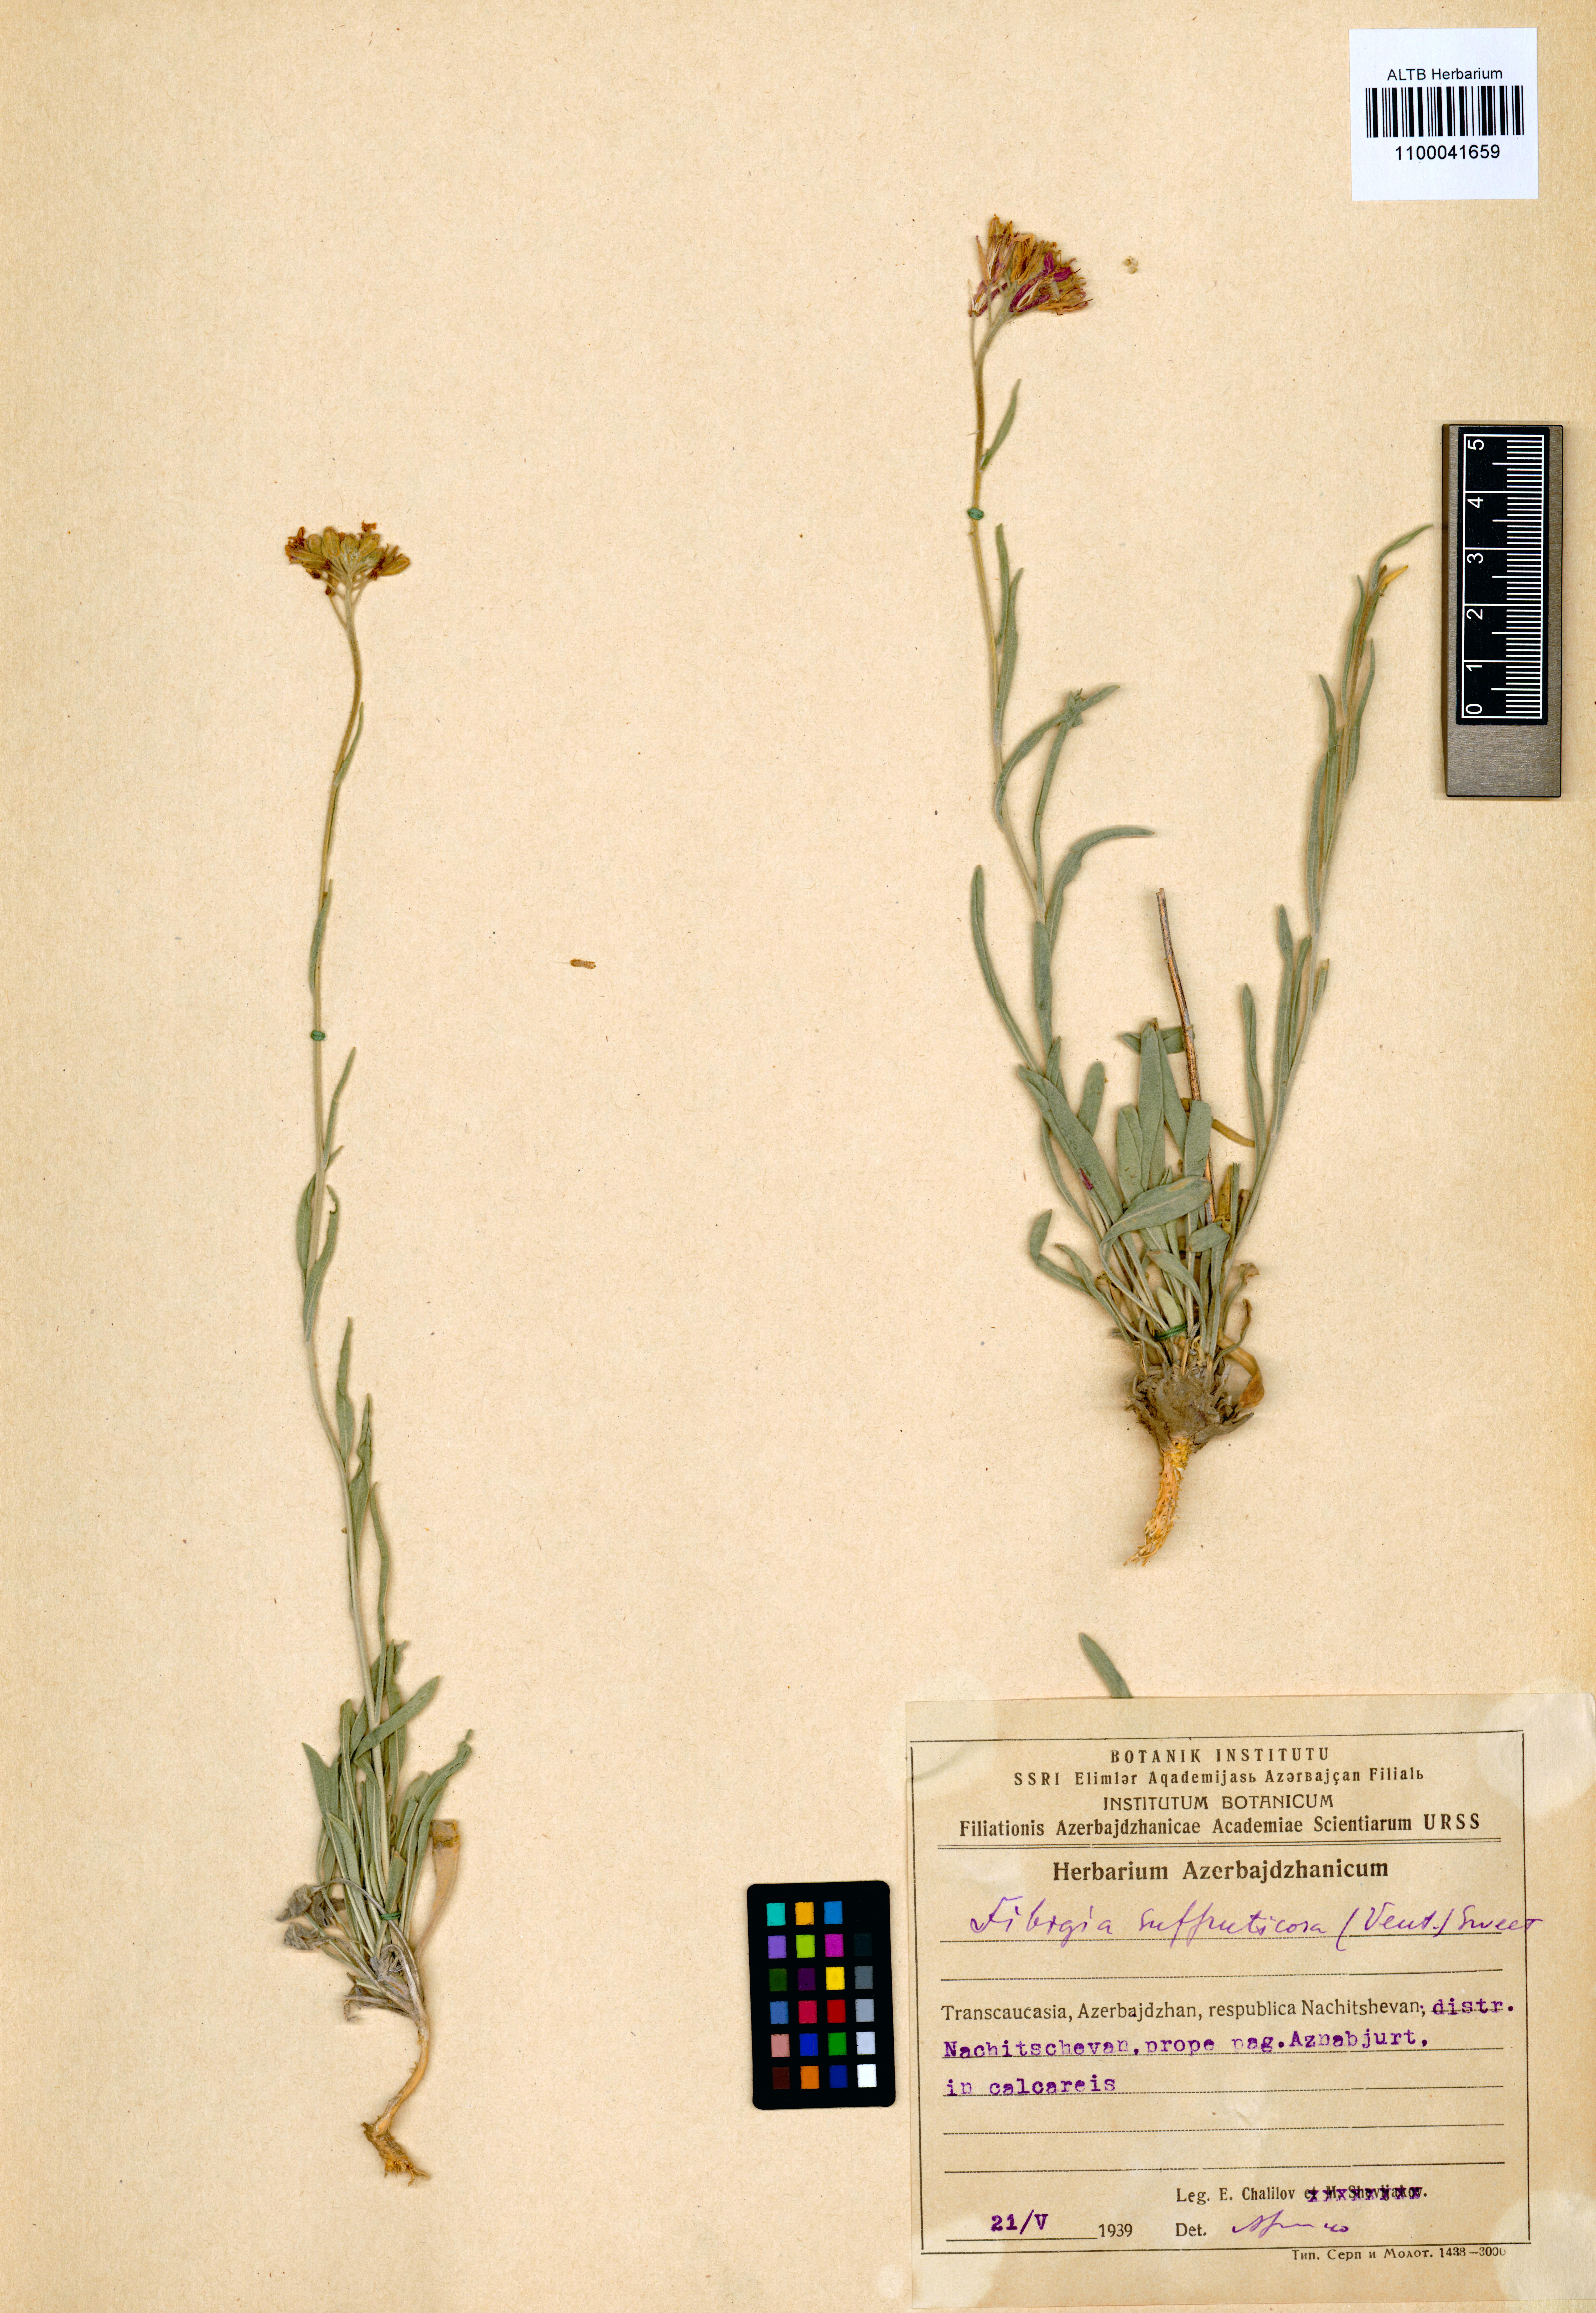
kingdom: Plantae
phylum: Tracheophyta
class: Magnoliopsida
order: Brassicales
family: Brassicaceae
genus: Brachypus
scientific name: Brachypus suffruticosus
